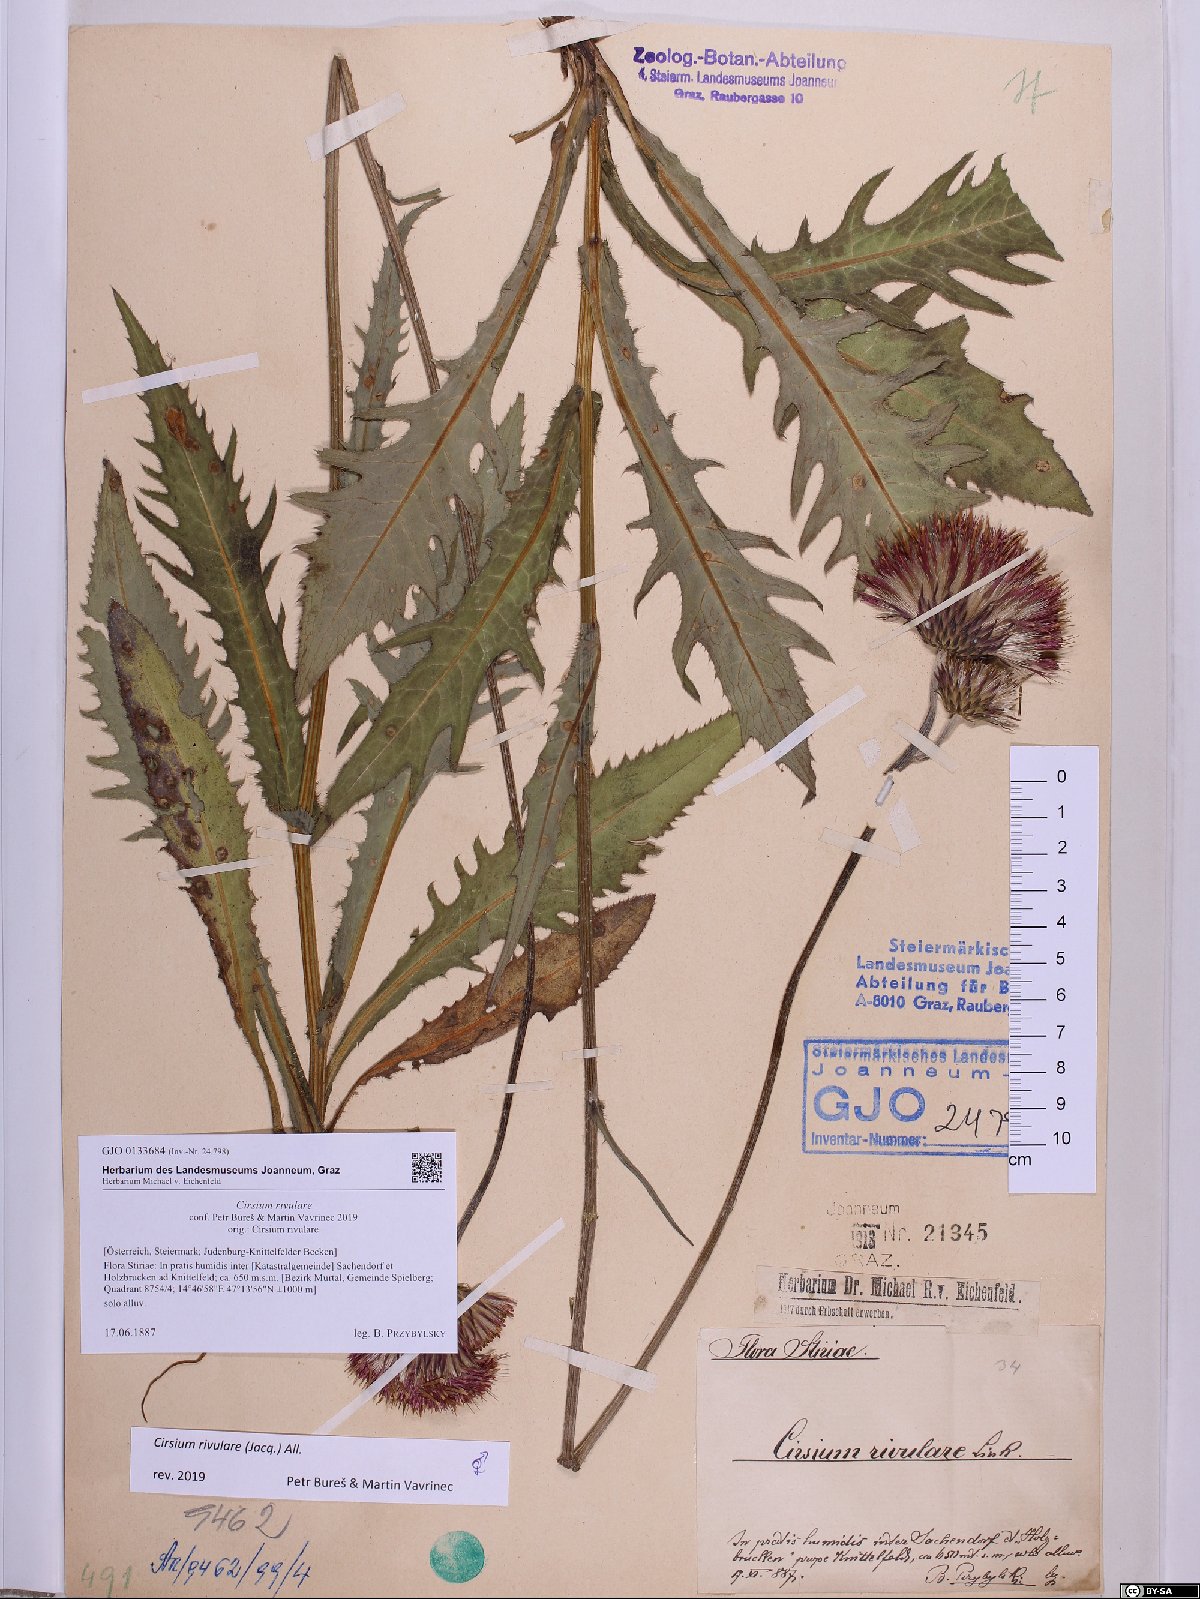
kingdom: Plantae
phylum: Tracheophyta
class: Magnoliopsida
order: Asterales
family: Asteraceae
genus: Cirsium
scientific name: Cirsium rivulare
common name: Brook thistle
